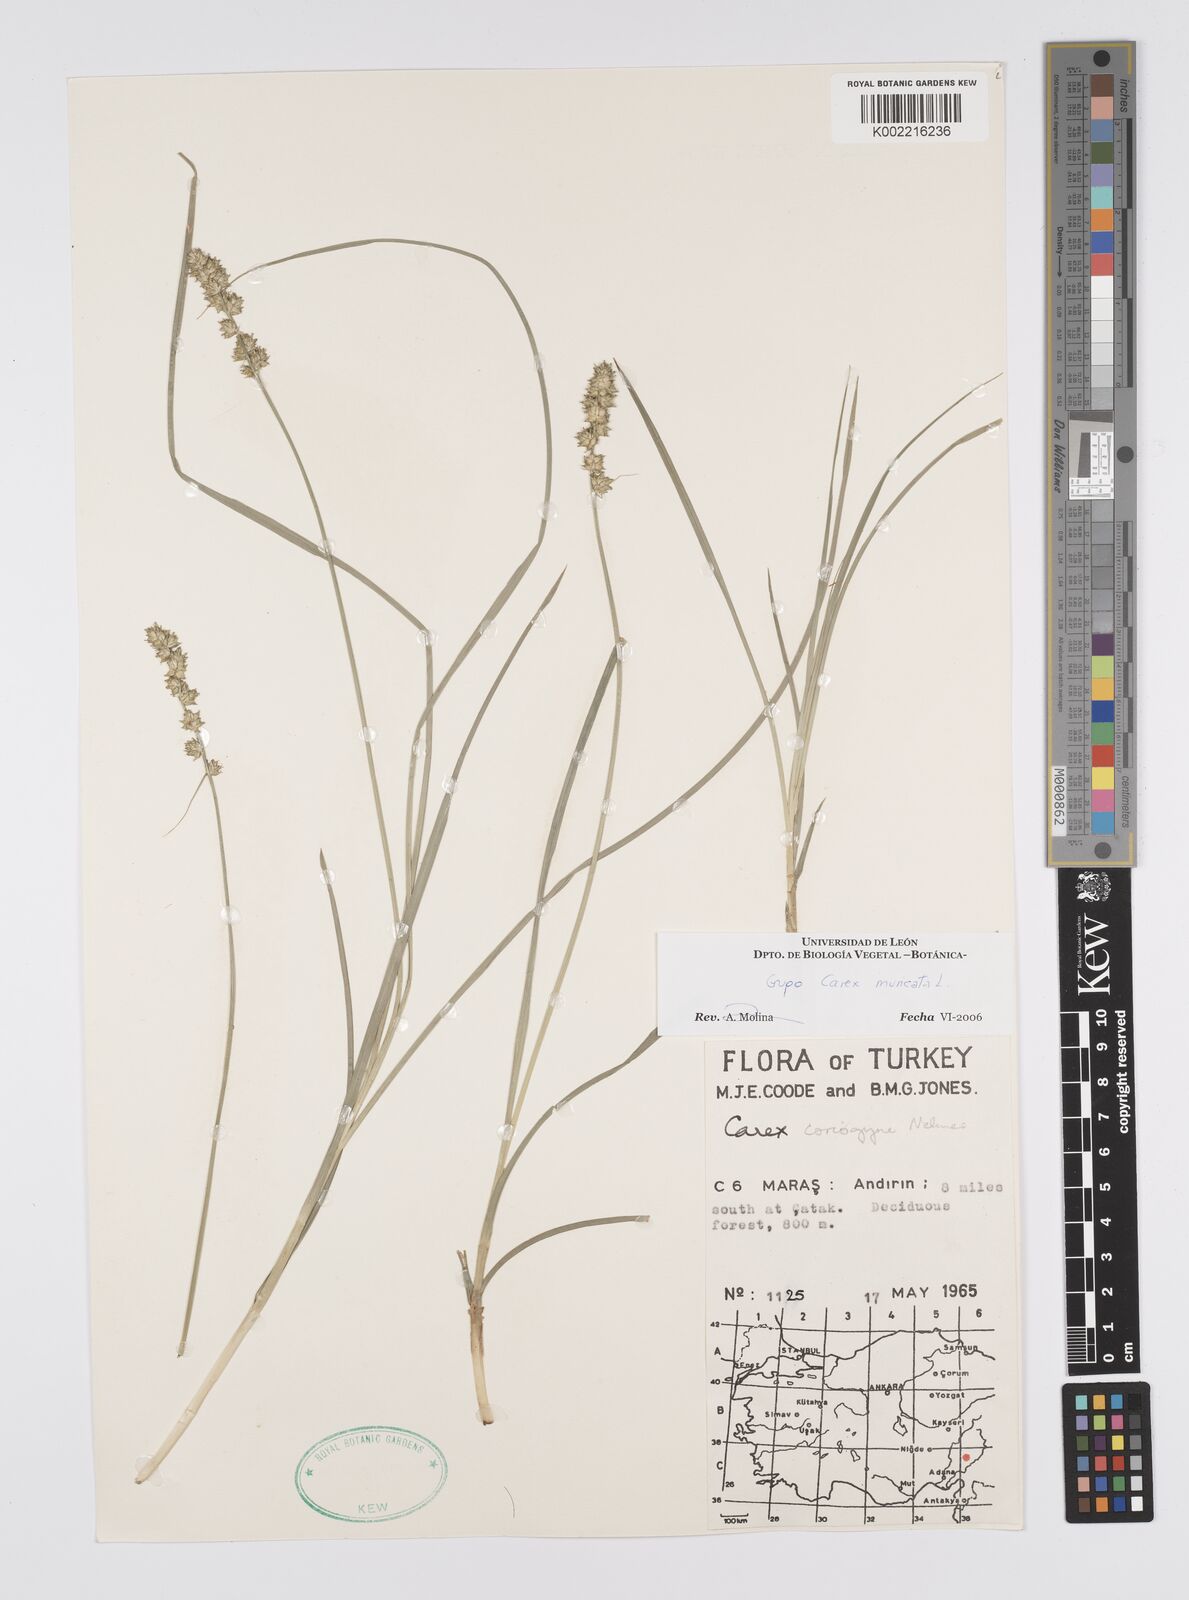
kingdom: Plantae
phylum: Tracheophyta
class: Liliopsida
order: Poales
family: Cyperaceae
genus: Carex
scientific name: Carex muricata
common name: Rough sedge
